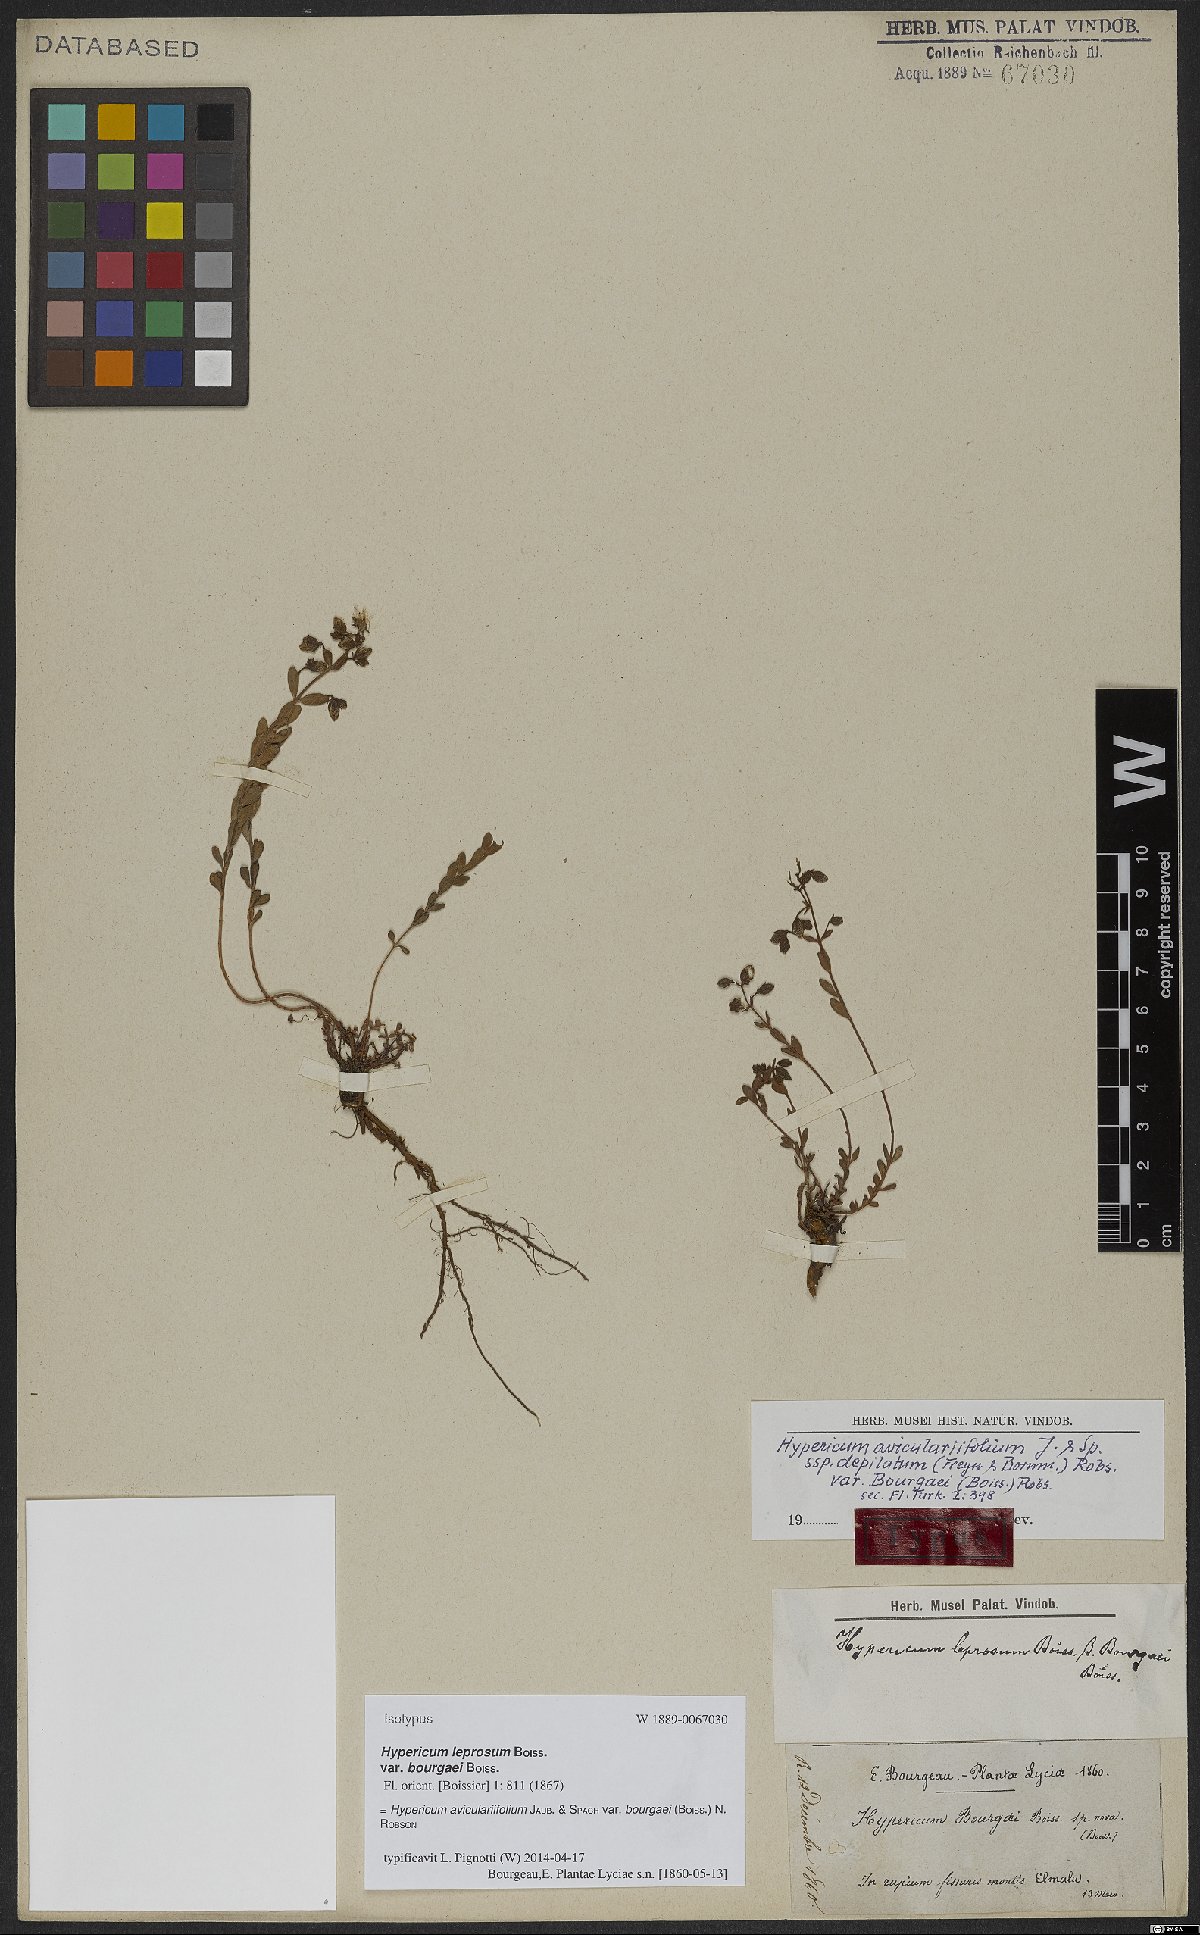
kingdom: Plantae
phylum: Tracheophyta
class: Magnoliopsida
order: Malpighiales
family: Hypericaceae
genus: Hypericum
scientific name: Hypericum bourgaei
